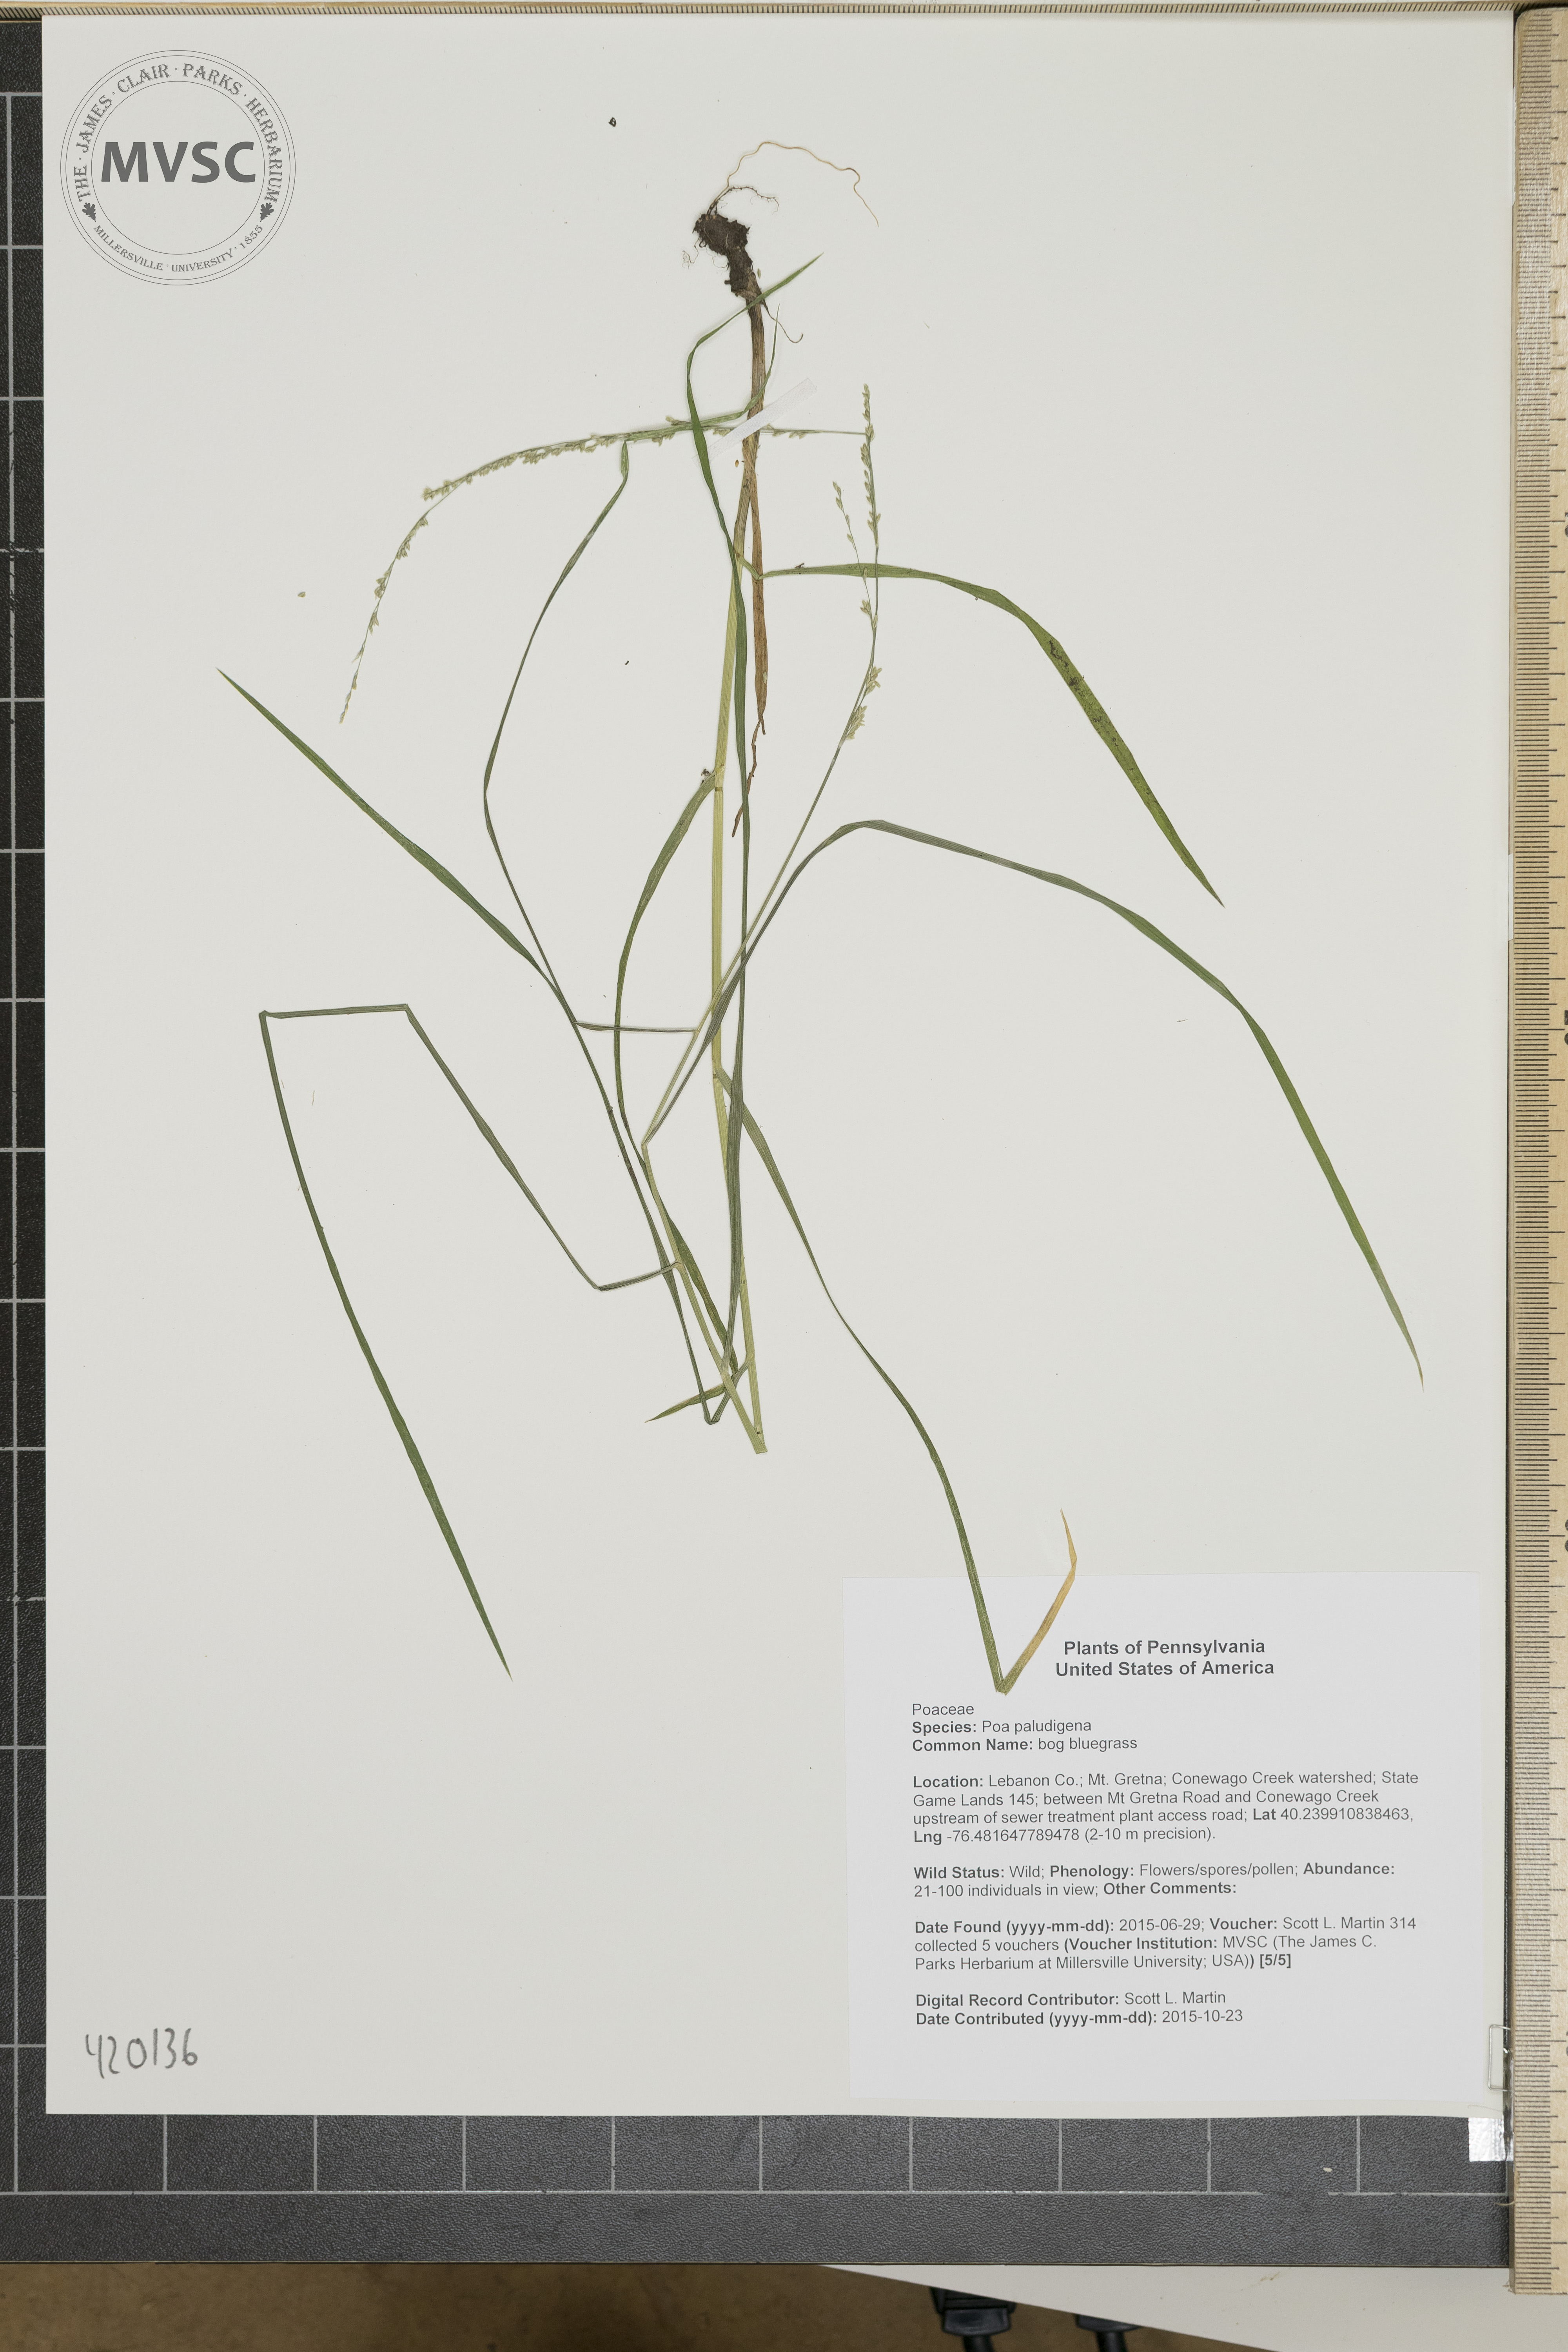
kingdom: Plantae
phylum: Tracheophyta
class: Liliopsida
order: Poales
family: Poaceae
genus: Glyceria
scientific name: Glyceria striata
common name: Fowl manna grass
